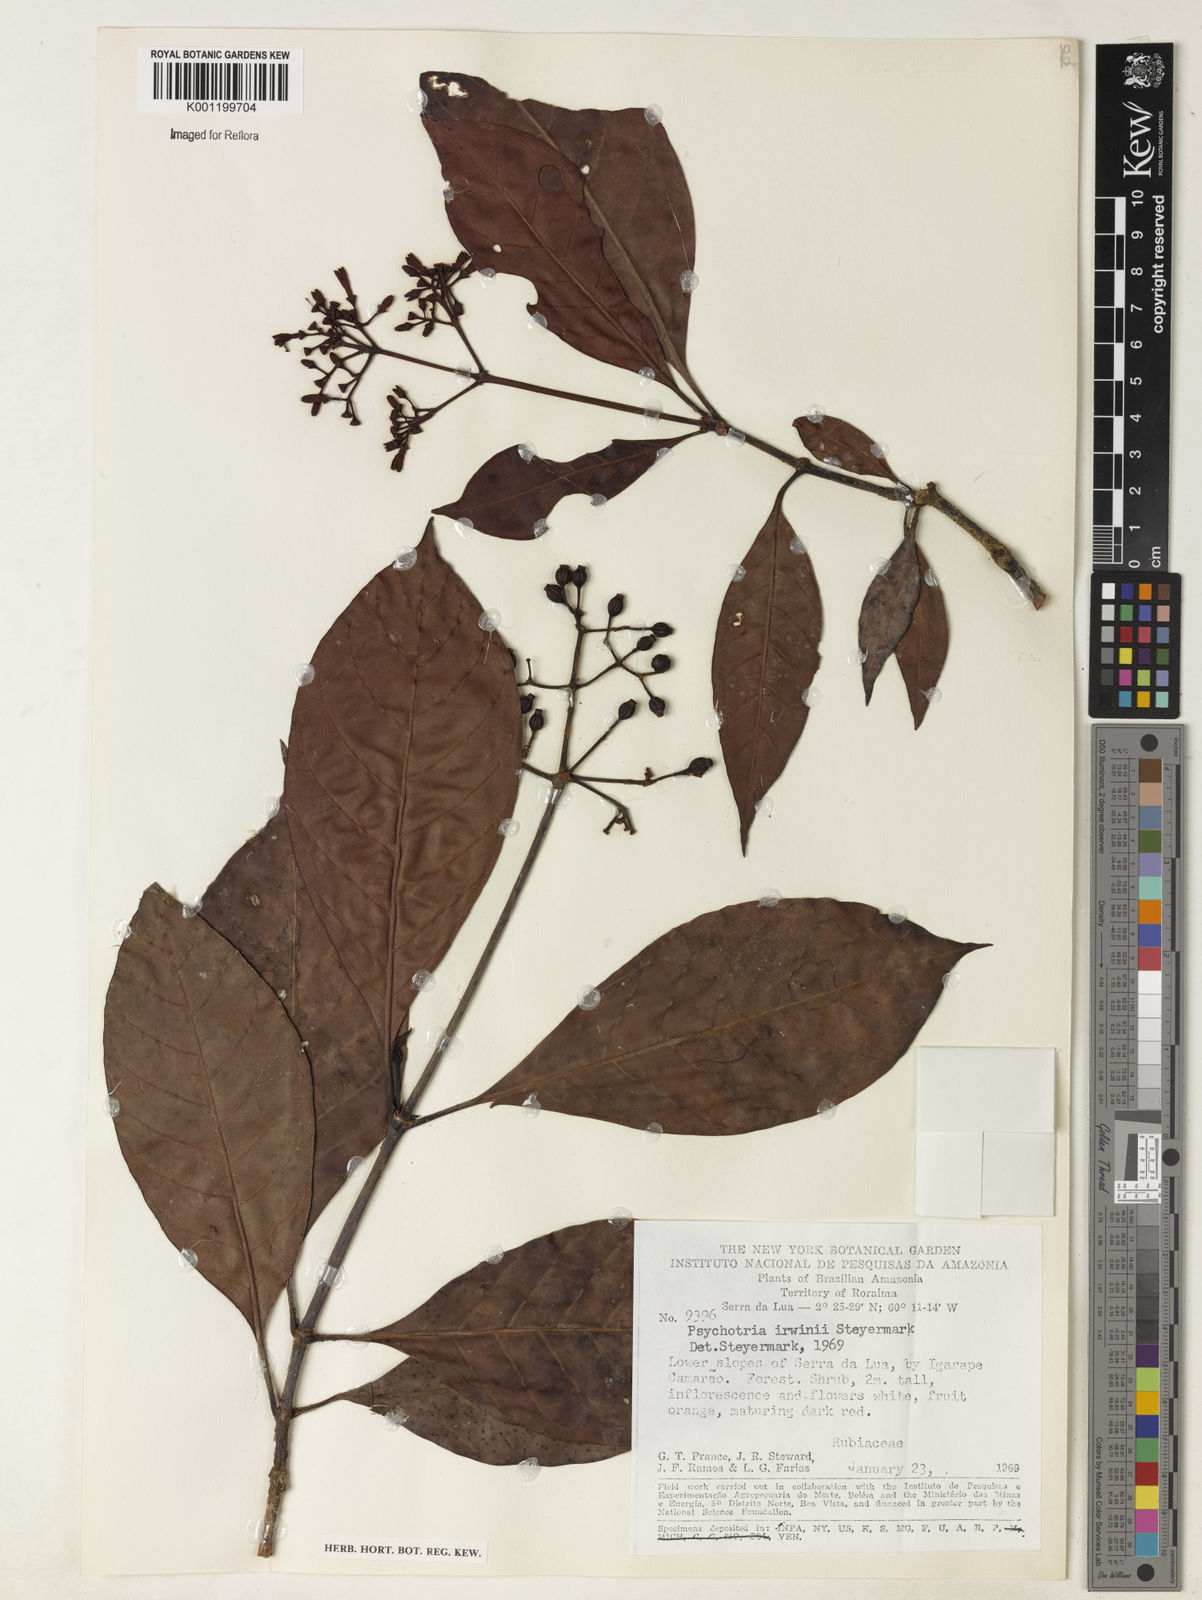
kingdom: Plantae
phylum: Tracheophyta
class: Magnoliopsida
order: Gentianales
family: Rubiaceae
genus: Psychotria
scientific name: Psychotria irwinii
